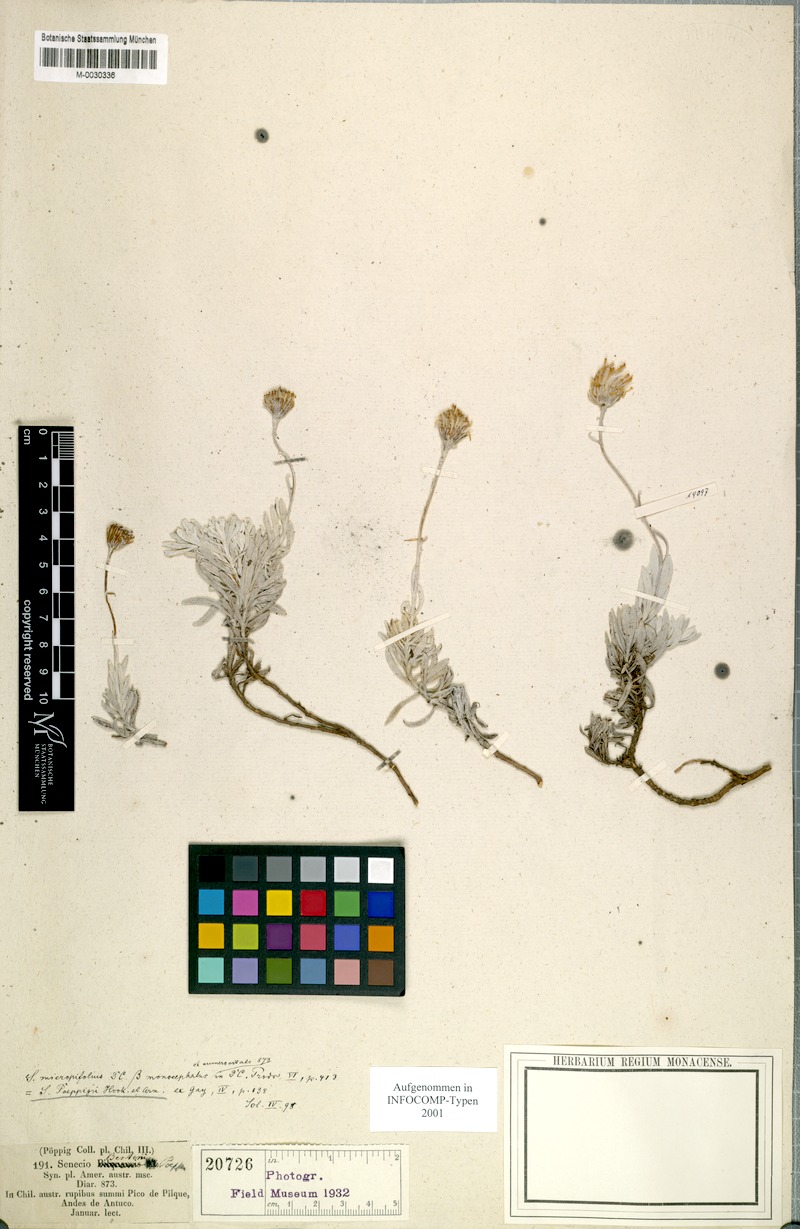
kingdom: Plantae
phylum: Tracheophyta
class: Magnoliopsida
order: Asterales
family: Asteraceae
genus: Senecio
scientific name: Senecio poeppigii
